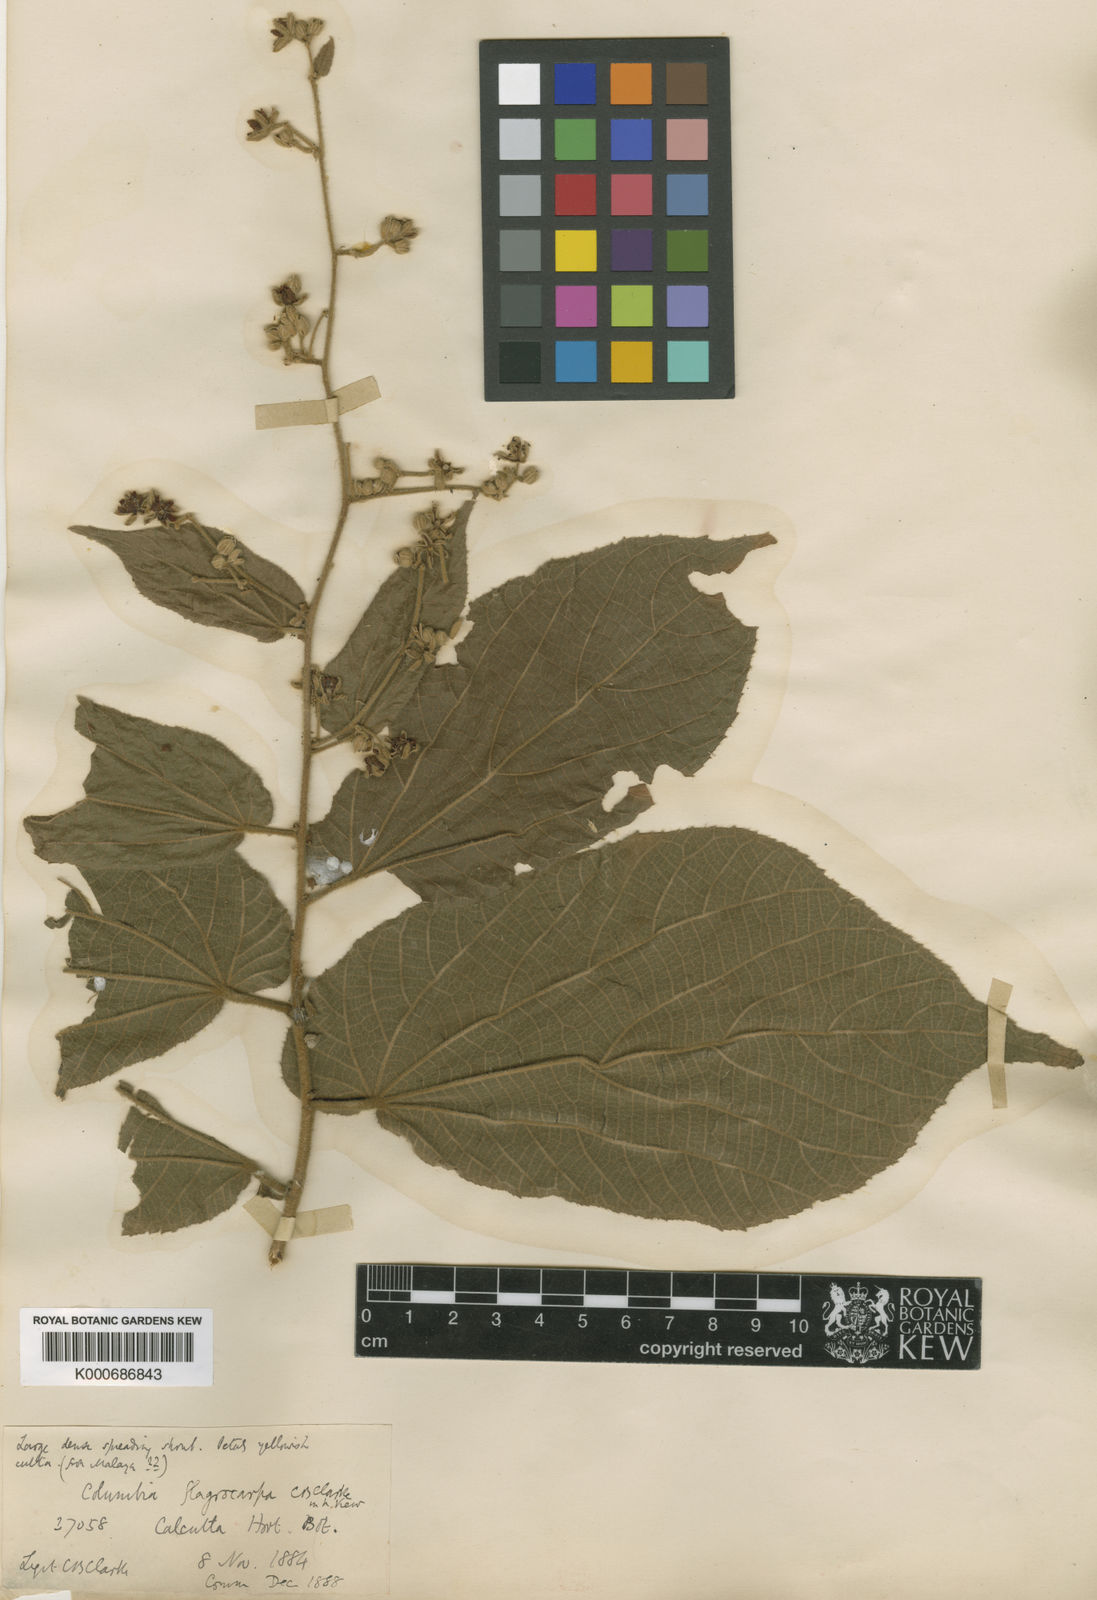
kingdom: Plantae
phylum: Tracheophyta
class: Magnoliopsida
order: Malvales
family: Malvaceae
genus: Colona
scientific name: Colona flagrocarpa
